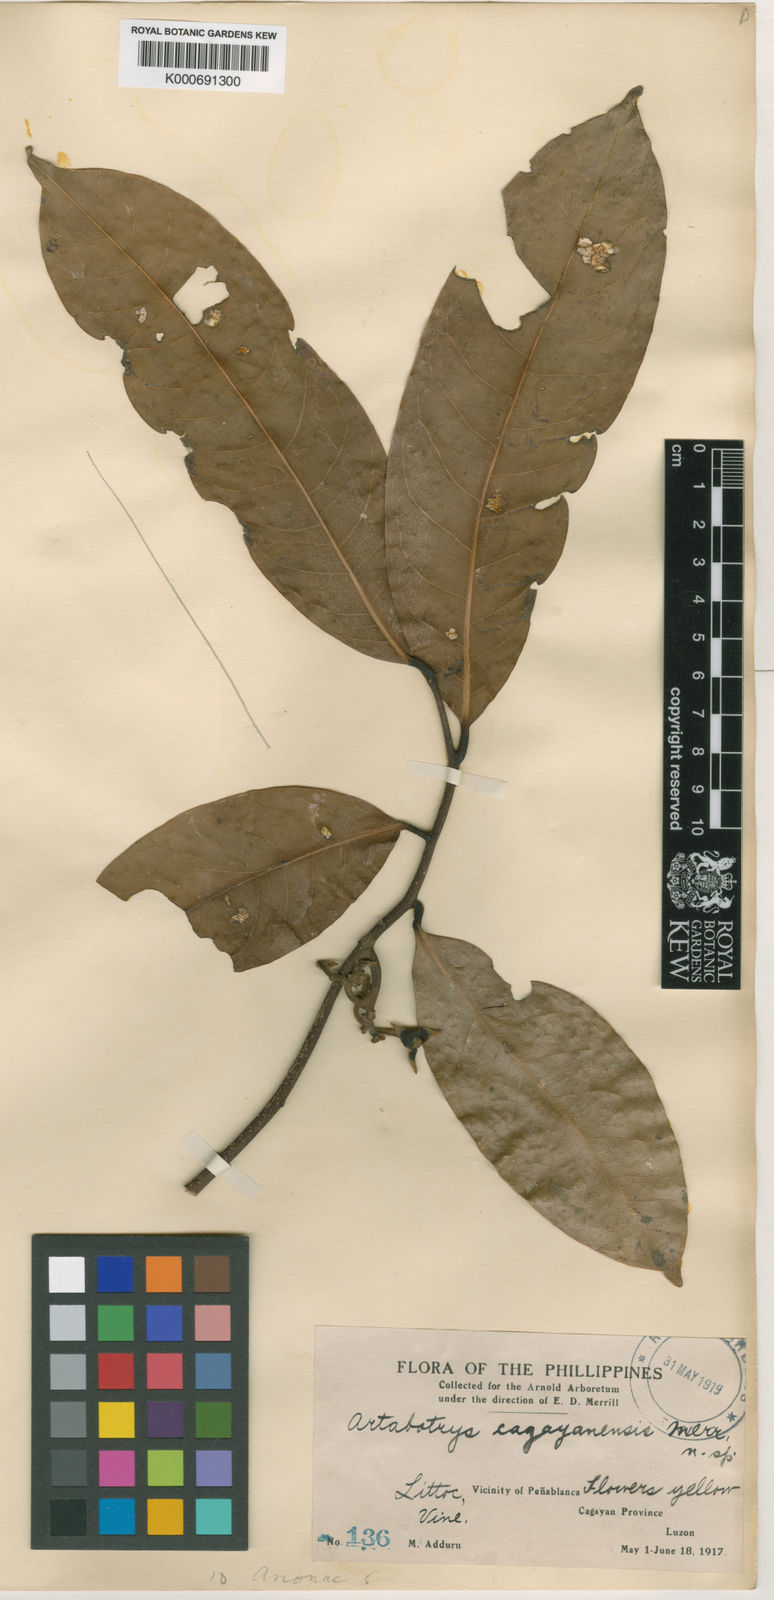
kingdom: Plantae
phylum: Tracheophyta
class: Magnoliopsida
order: Magnoliales
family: Annonaceae
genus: Artabotrys
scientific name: Artabotrys cagayanensis
